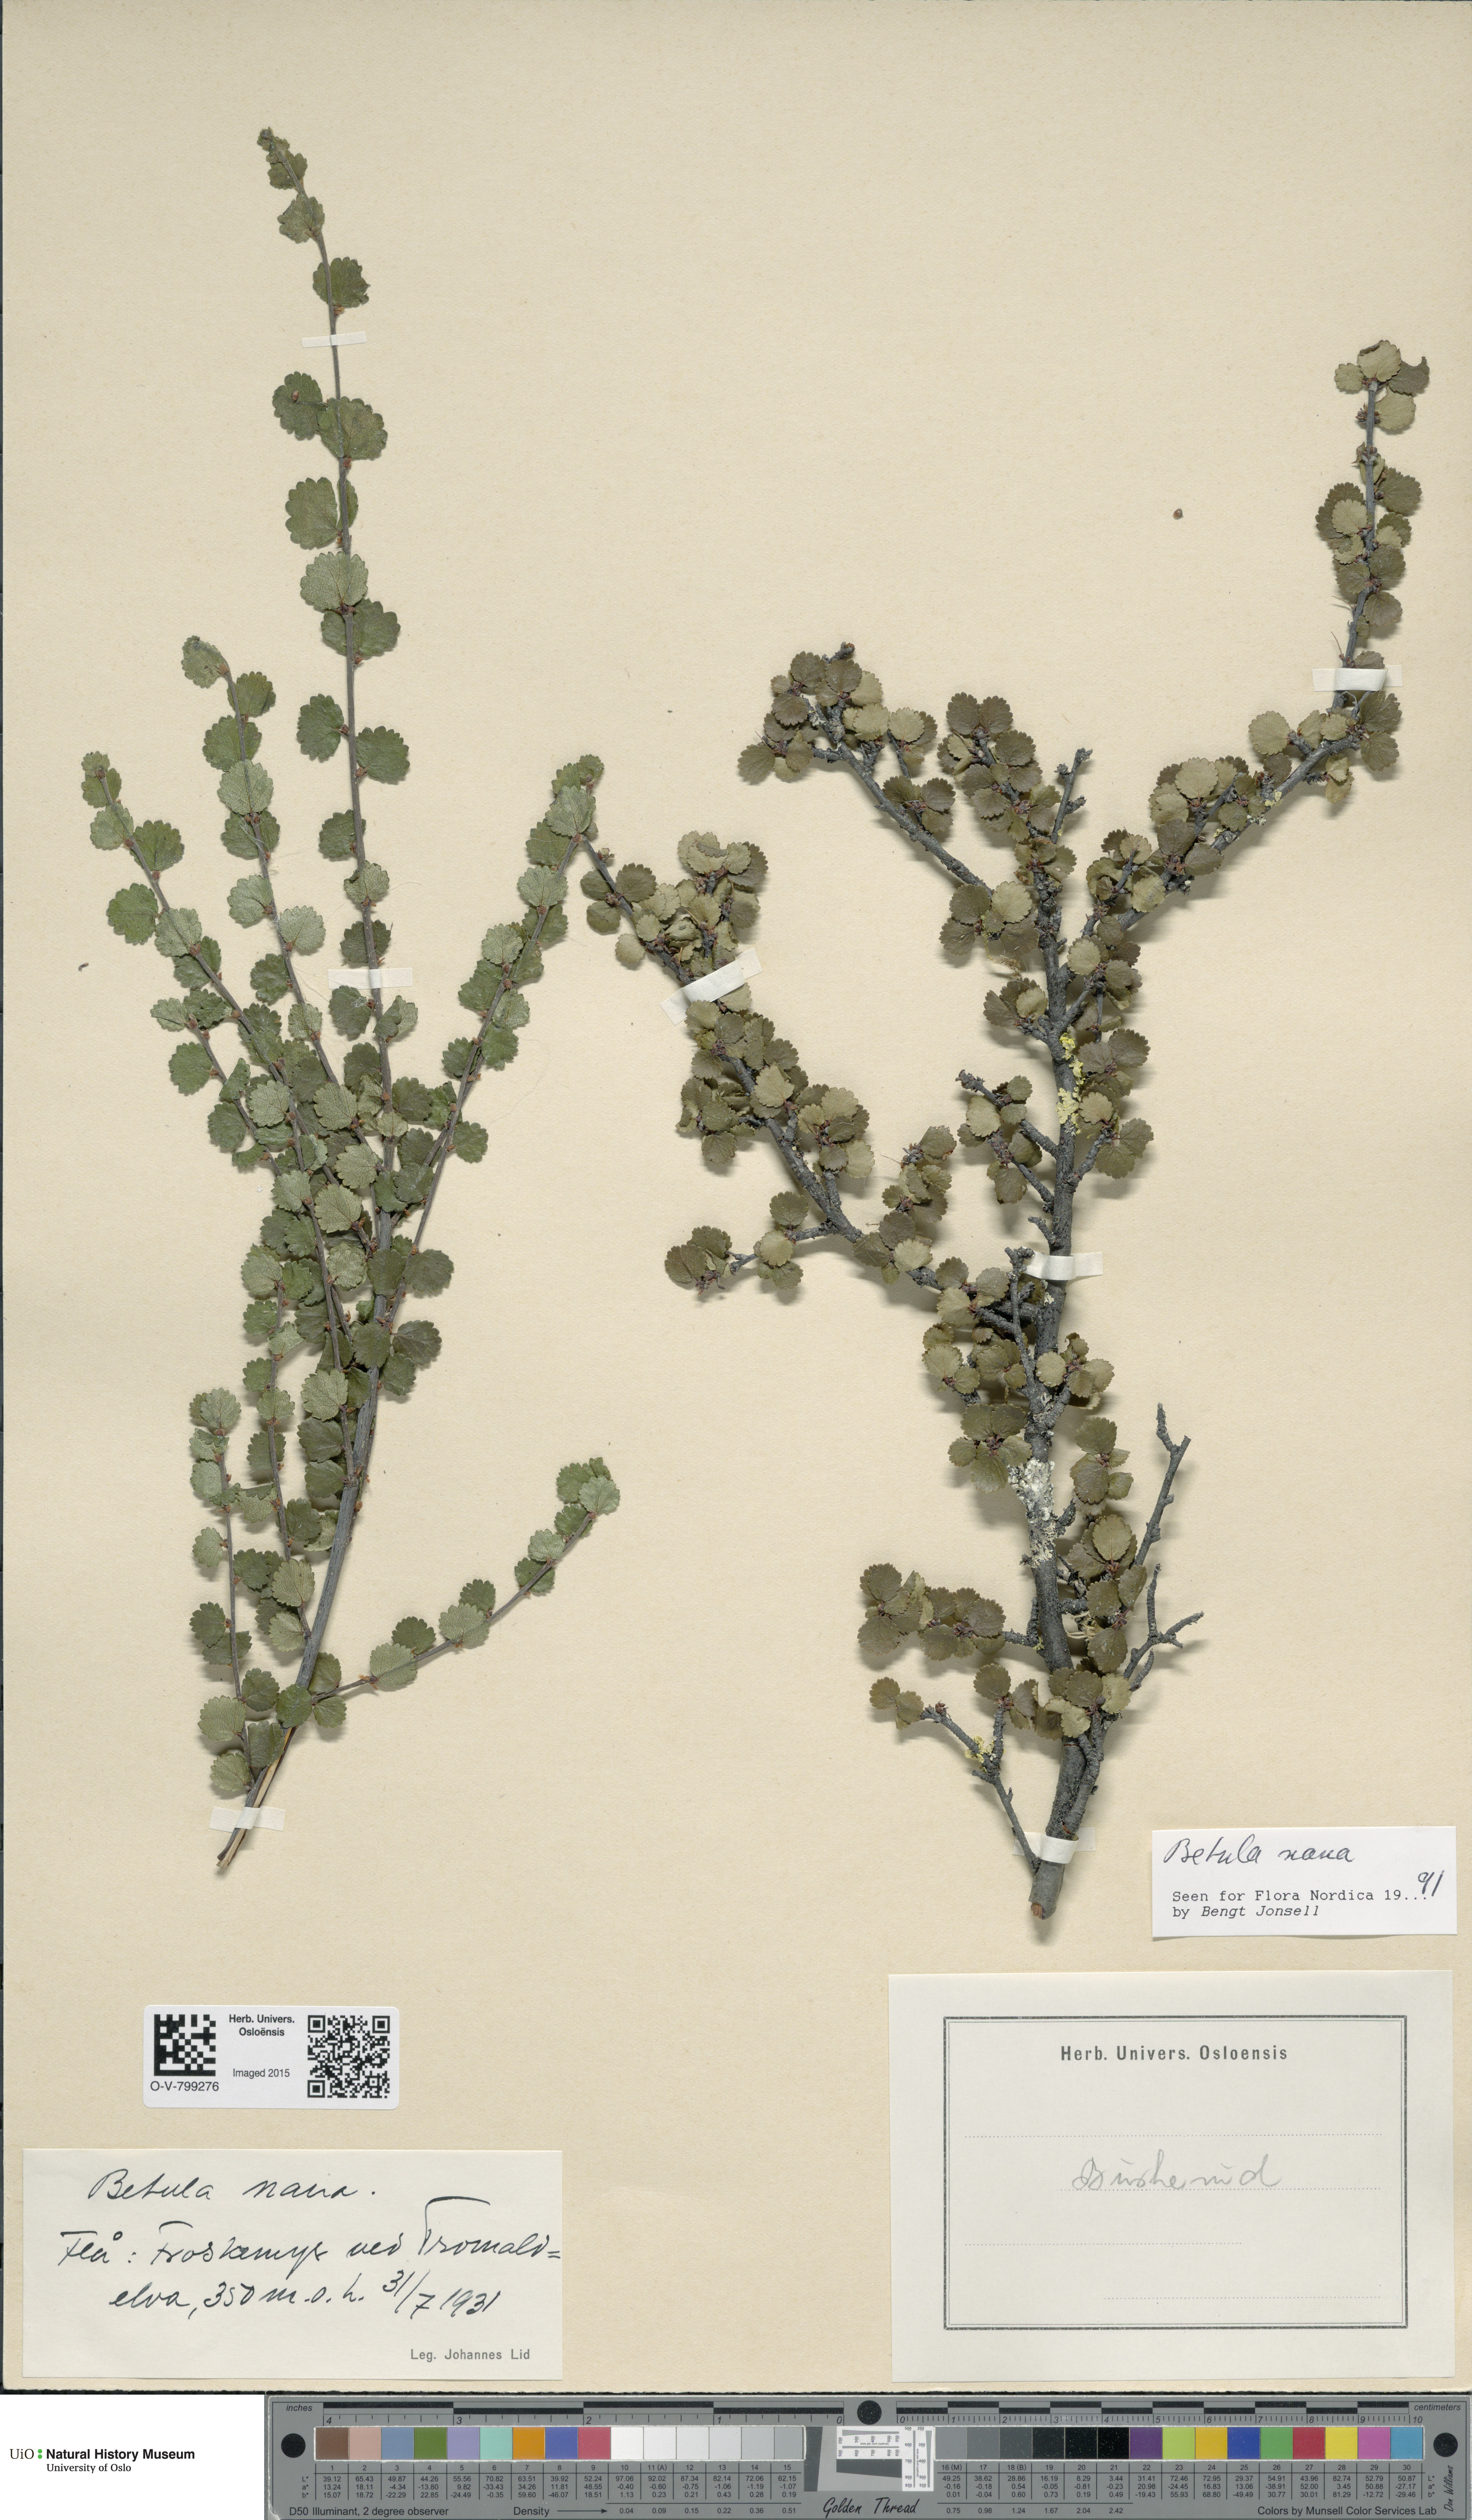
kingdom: Plantae
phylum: Tracheophyta
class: Magnoliopsida
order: Fagales
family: Betulaceae
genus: Betula
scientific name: Betula nana
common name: Arctic dwarf birch
